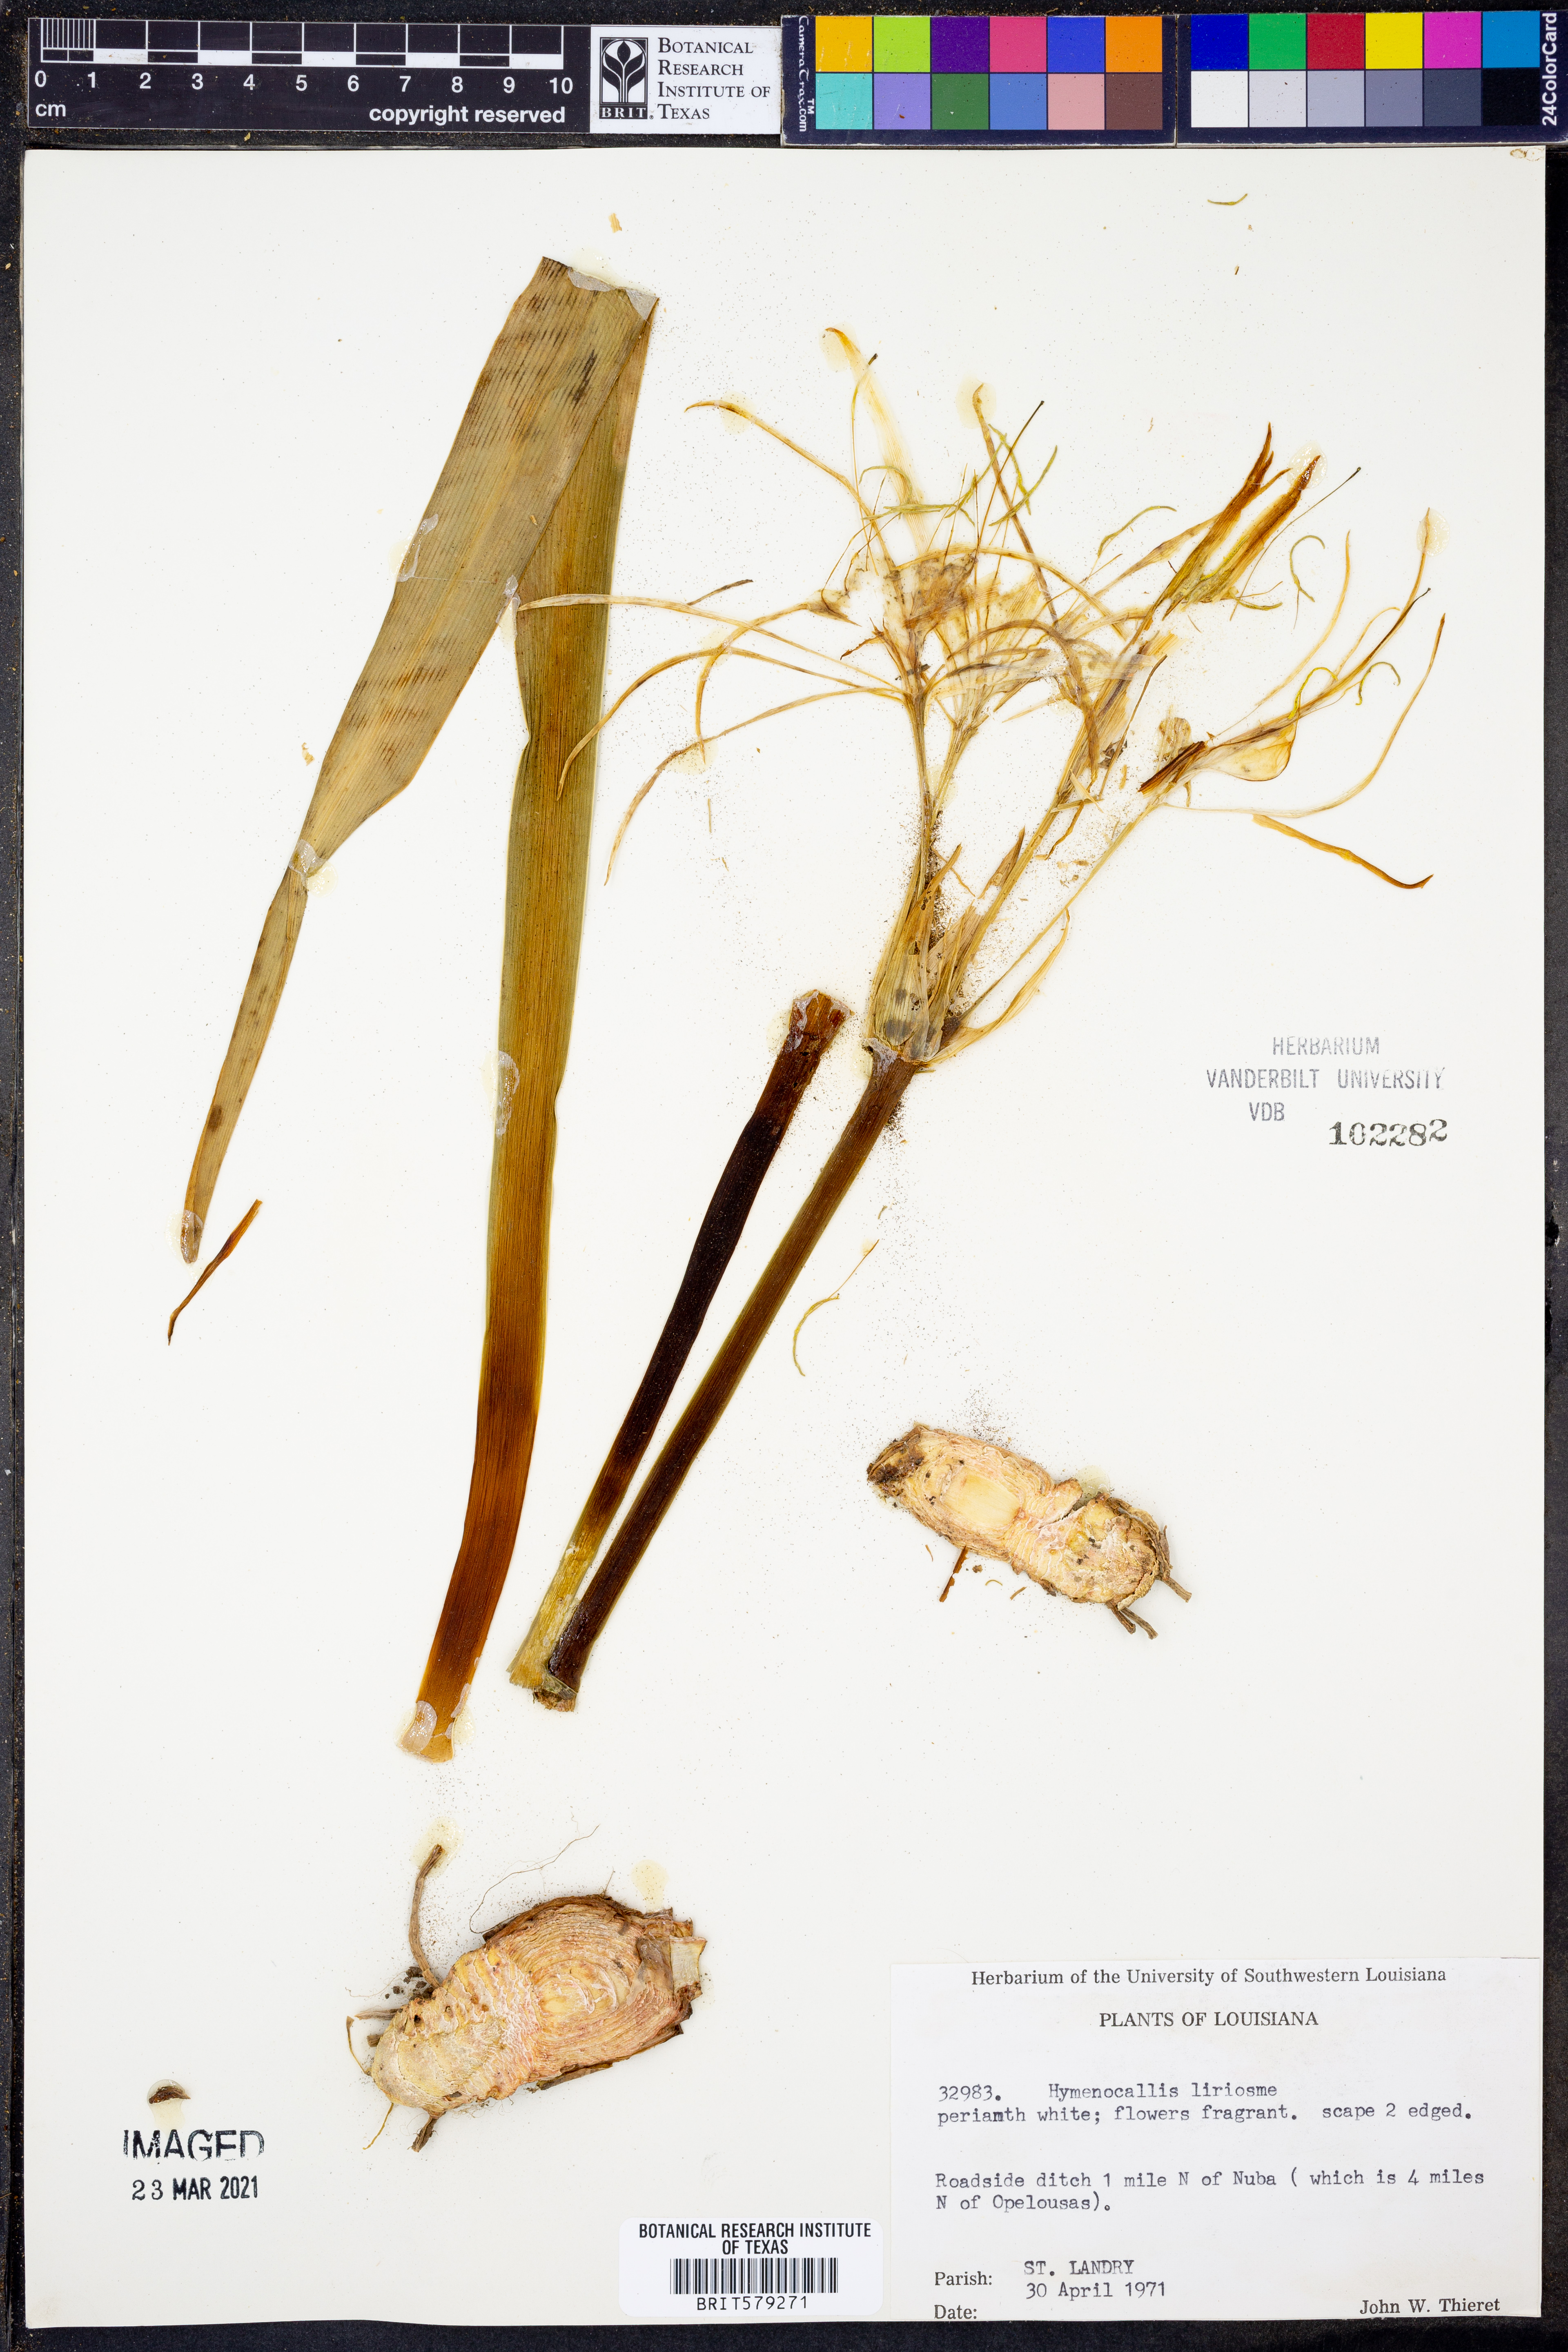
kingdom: Plantae
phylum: Tracheophyta
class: Liliopsida
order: Asparagales
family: Amaryllidaceae
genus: Hymenocallis
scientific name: Hymenocallis liriosme
